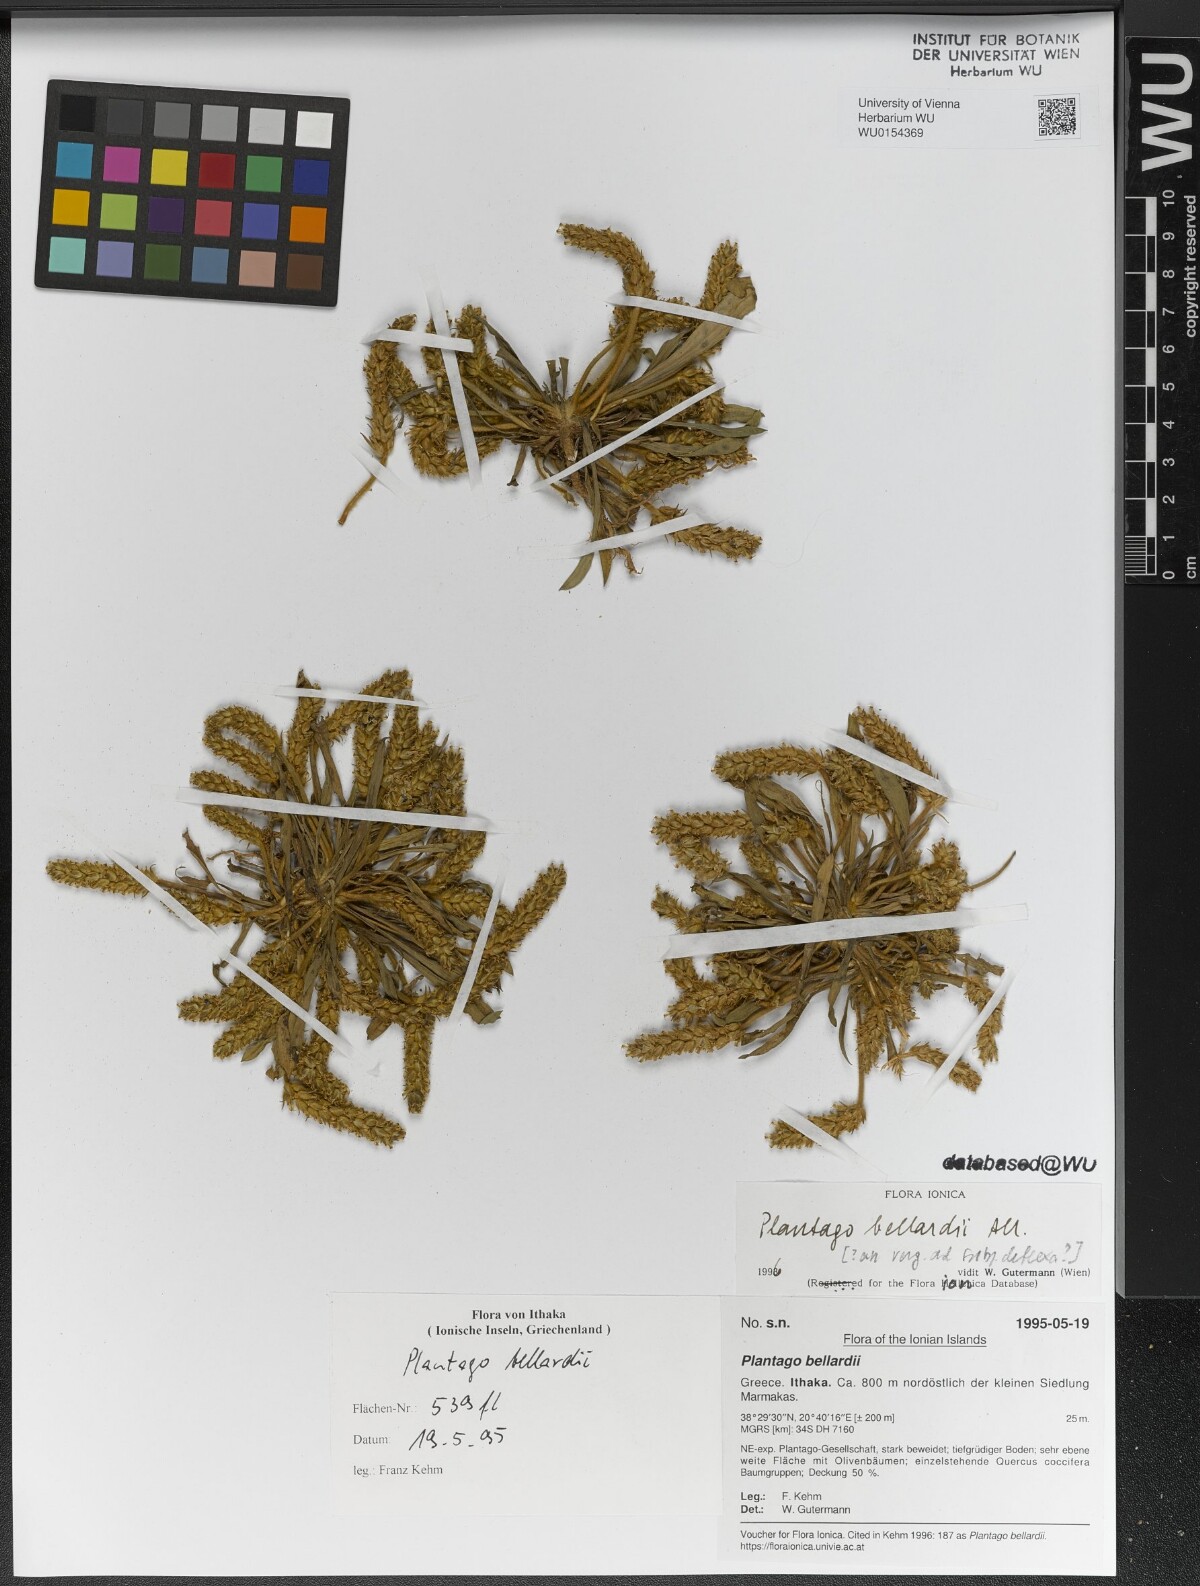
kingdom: Plantae
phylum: Tracheophyta
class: Magnoliopsida
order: Lamiales
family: Plantaginaceae
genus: Plantago
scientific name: Plantago bellardii
